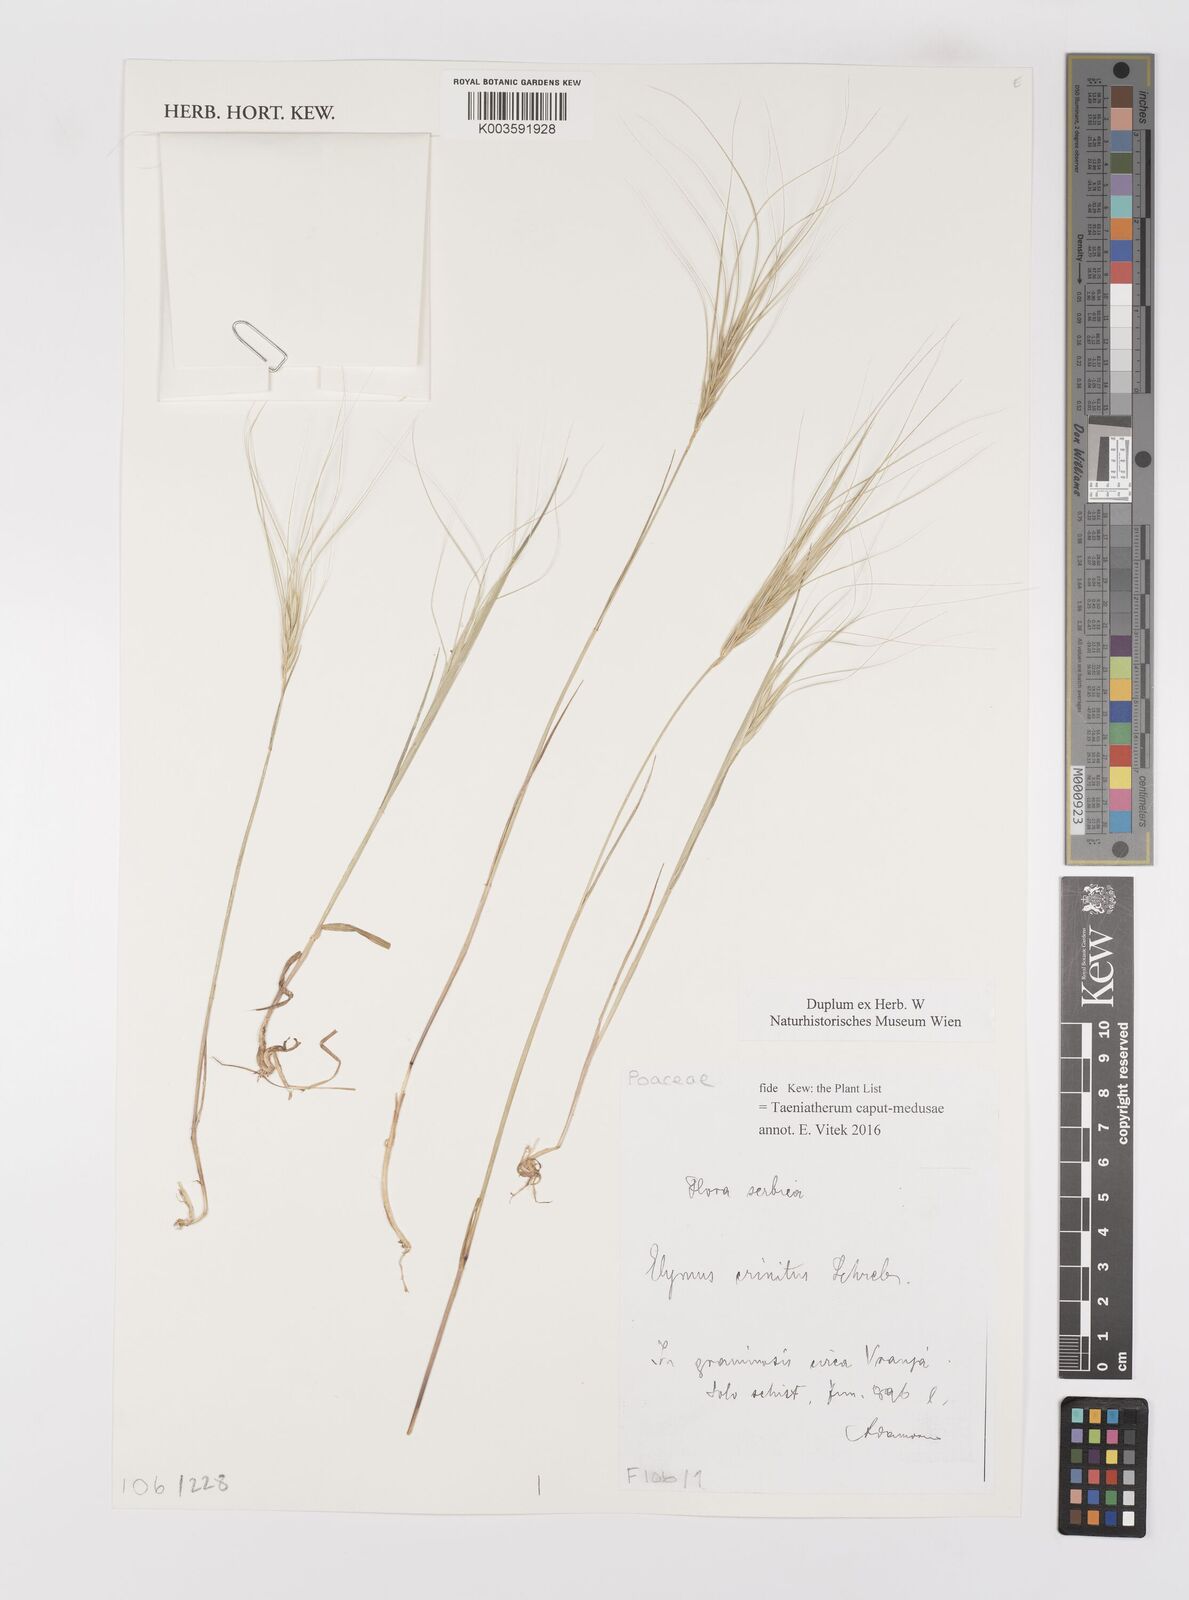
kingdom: Plantae
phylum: Tracheophyta
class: Liliopsida
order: Poales
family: Poaceae
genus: Taeniatherum
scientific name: Taeniatherum caput-medusae
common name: Medusahead
